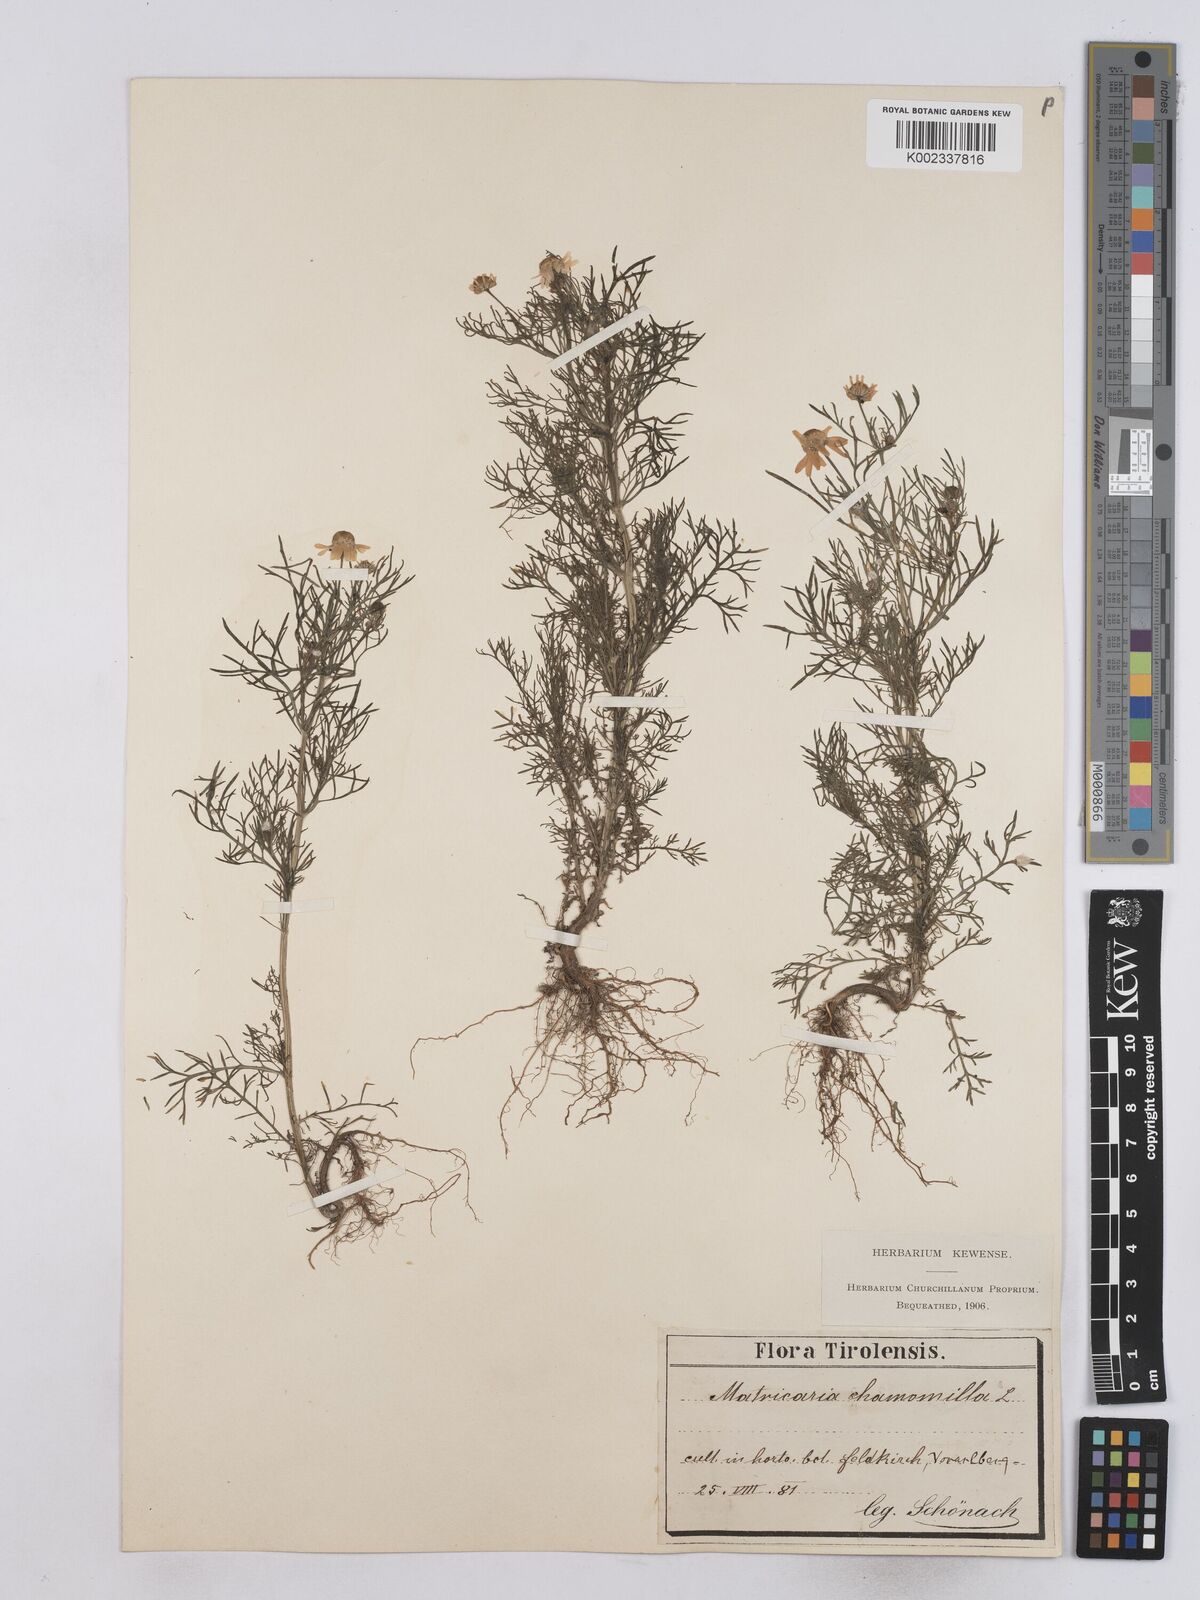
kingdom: Plantae
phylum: Tracheophyta
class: Magnoliopsida
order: Asterales
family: Asteraceae
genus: Matricaria
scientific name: Matricaria chamomilla
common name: Scented mayweed
